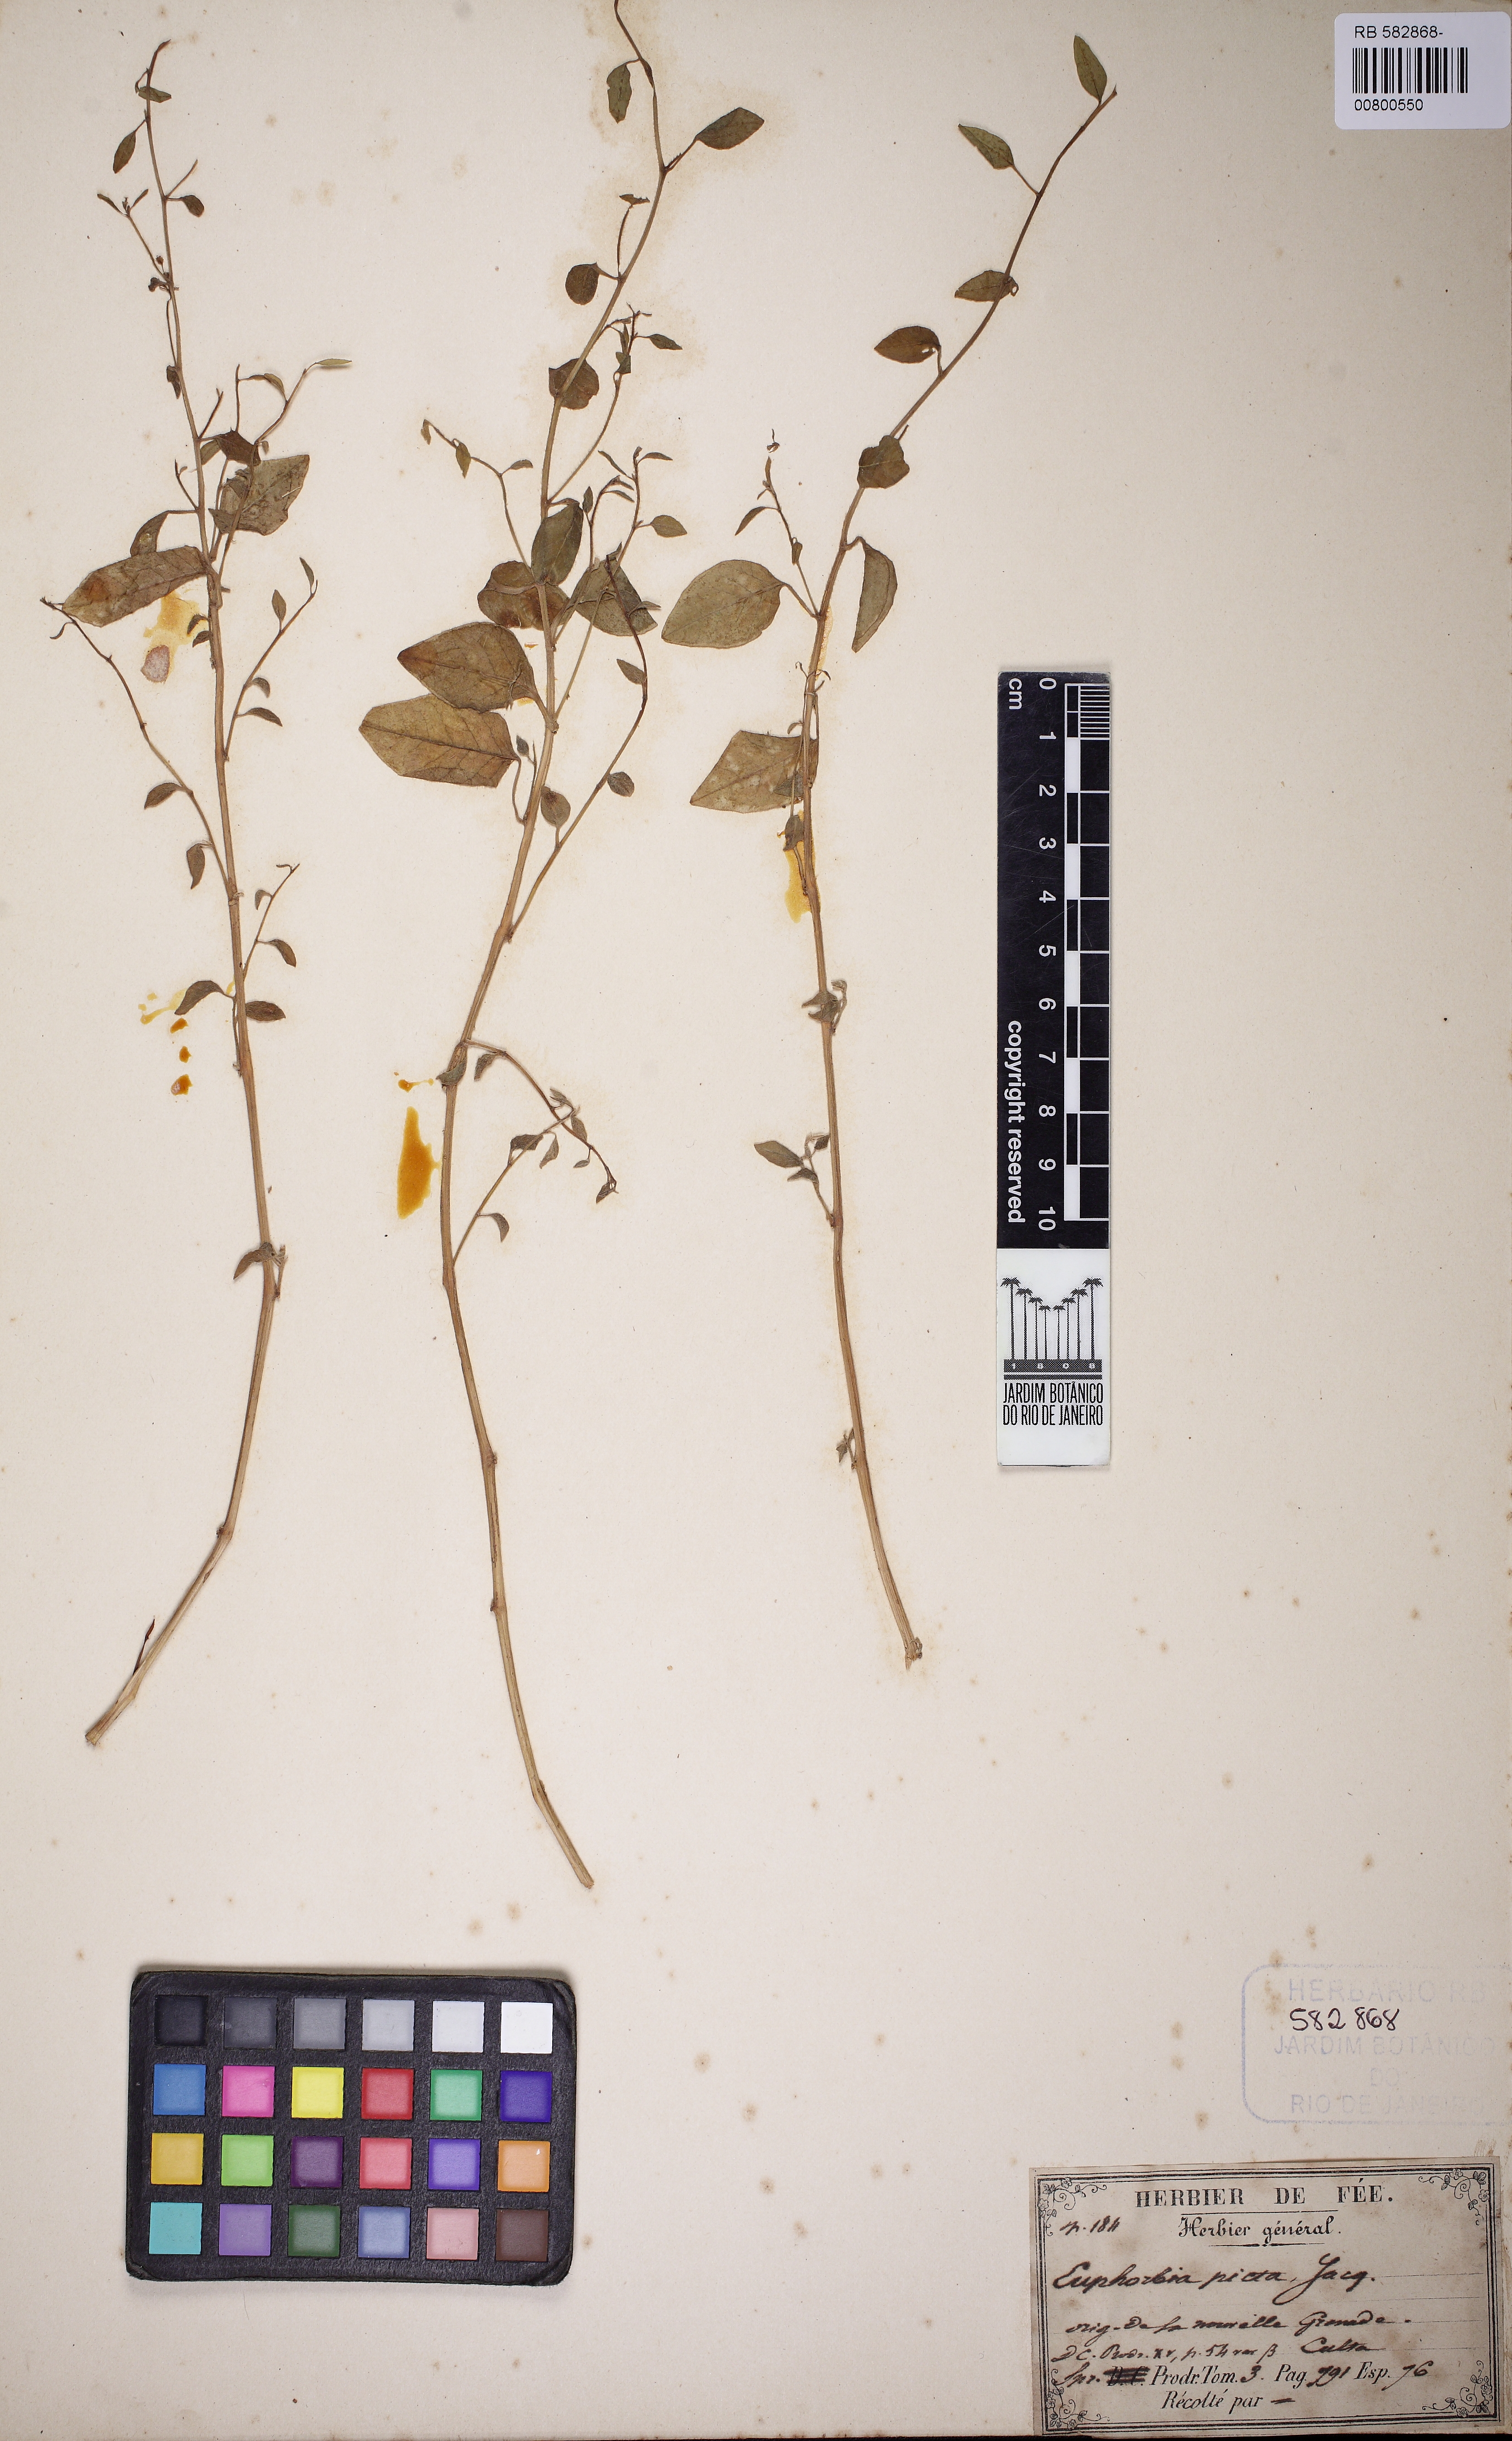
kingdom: Plantae
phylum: Tracheophyta
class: Magnoliopsida
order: Malpighiales
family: Euphorbiaceae
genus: Euphorbia
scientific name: Euphorbia graminea
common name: Grassleaf spurge
